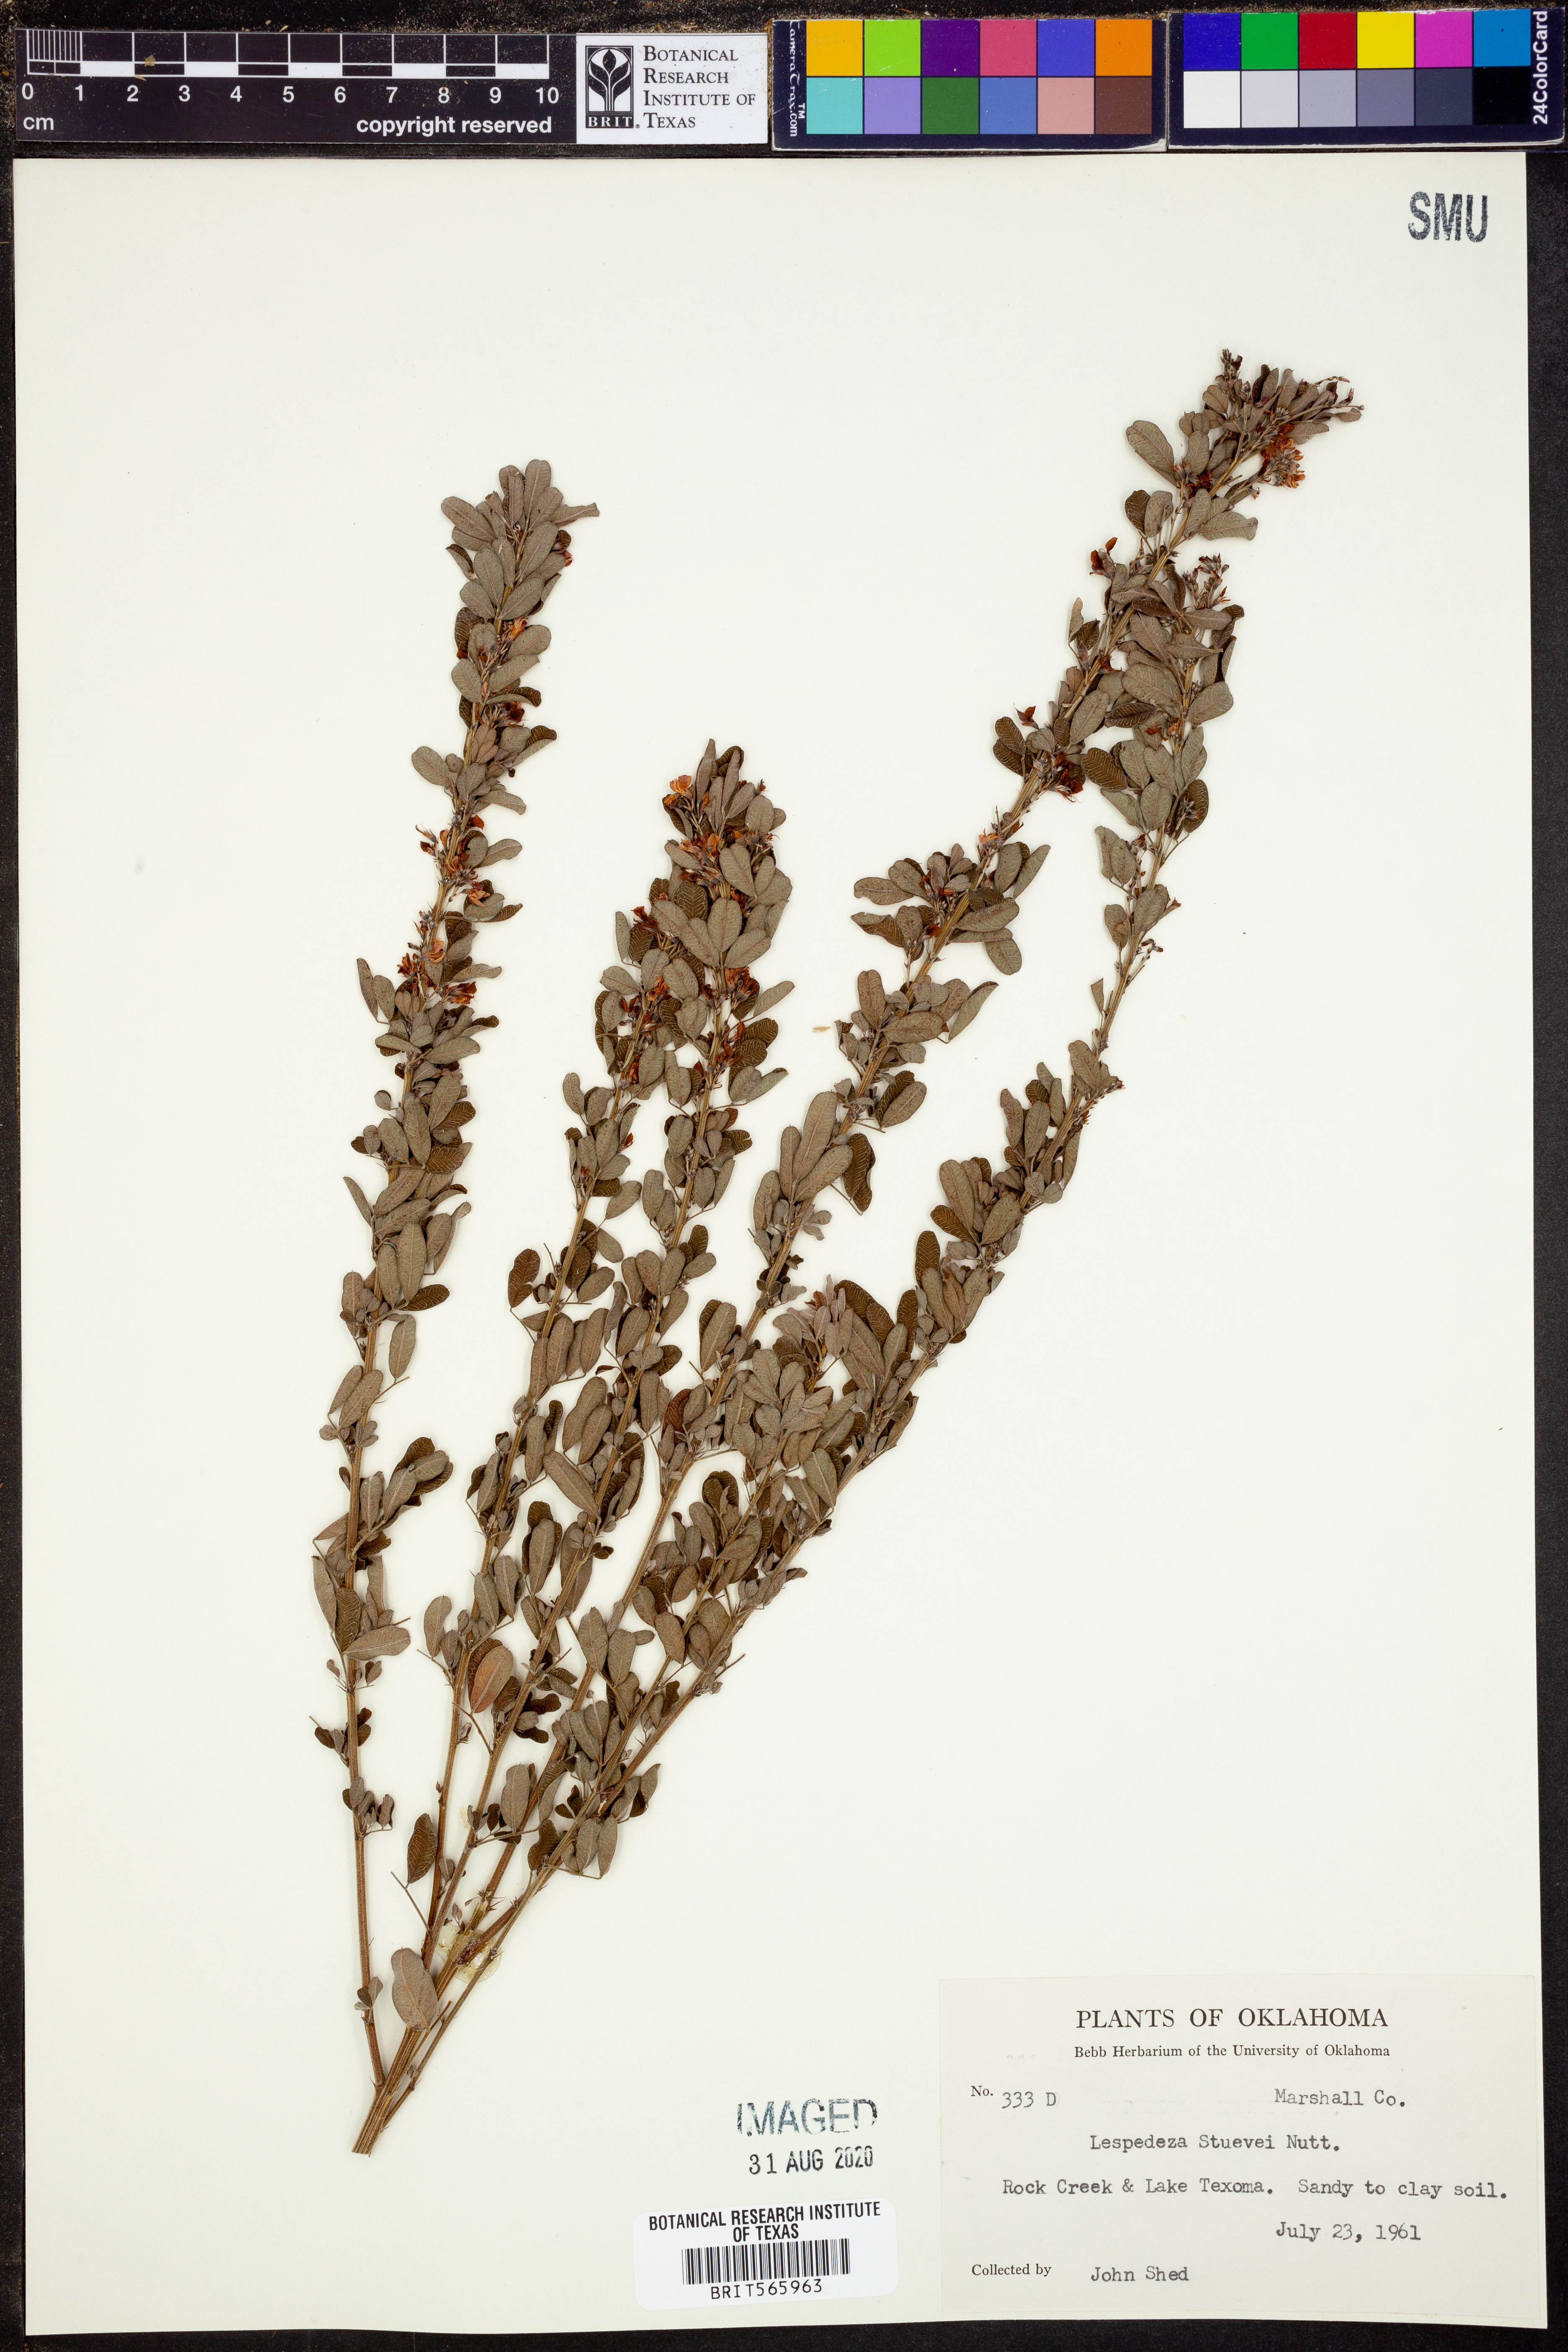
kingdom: Plantae
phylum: Tracheophyta
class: Magnoliopsida
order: Fabales
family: Fabaceae
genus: Lespedeza
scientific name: Lespedeza stuevei
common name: Tall bush-clover
